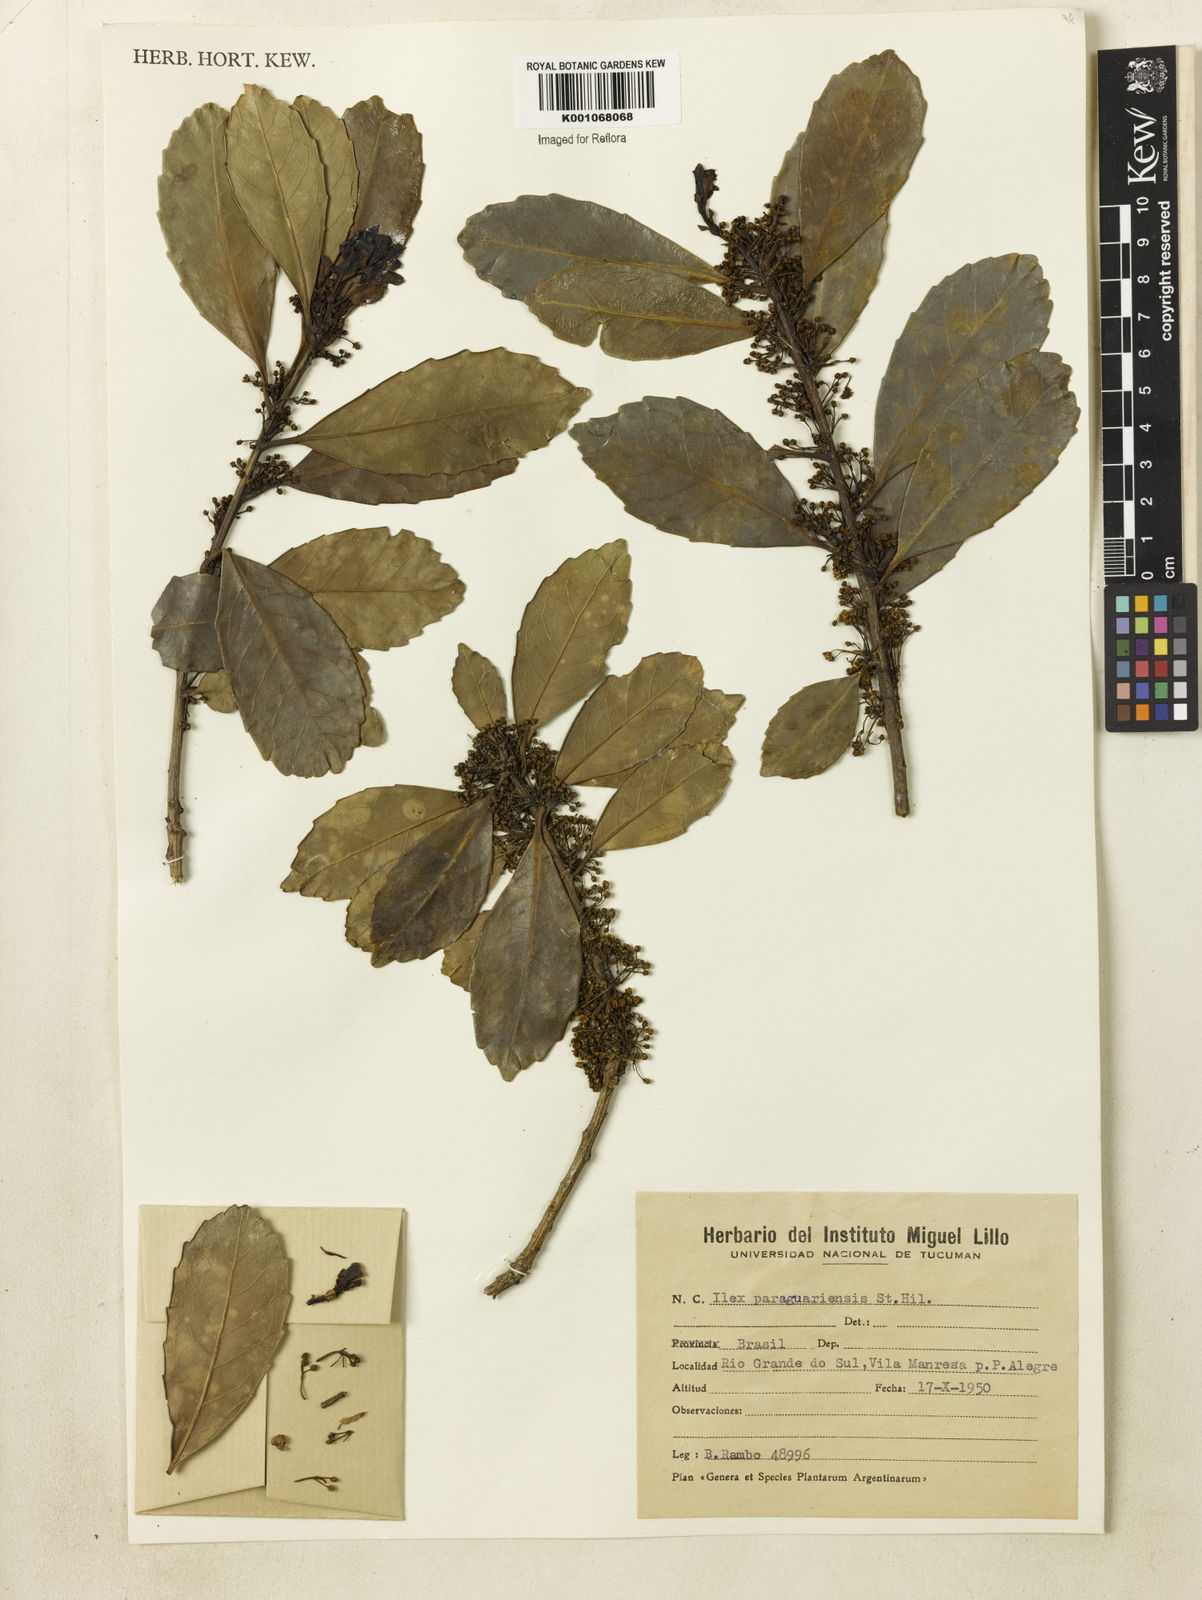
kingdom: Plantae
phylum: Tracheophyta
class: Magnoliopsida
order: Aquifoliales
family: Aquifoliaceae
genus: Ilex
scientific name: Ilex paraguariensis
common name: Paraguay tea
